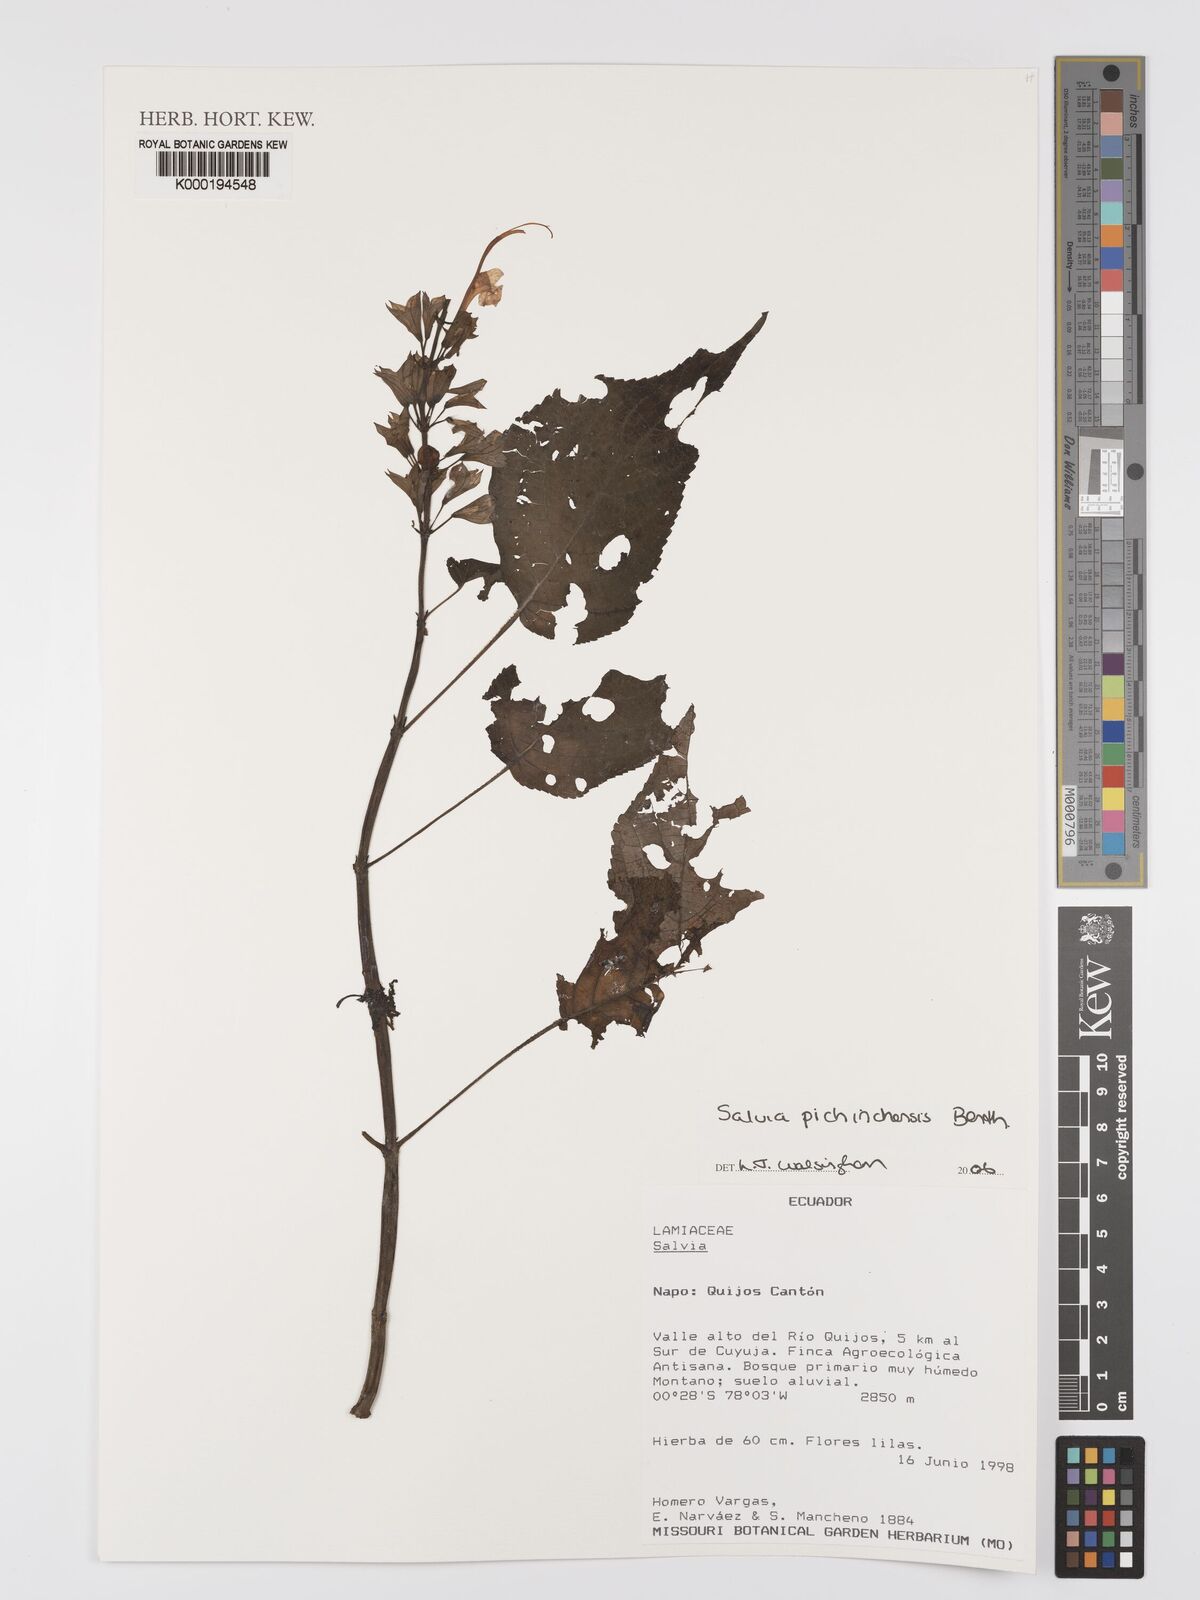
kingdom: Plantae
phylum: Tracheophyta
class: Magnoliopsida
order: Lamiales
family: Lamiaceae
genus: Salvia
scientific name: Salvia pichinchensis
